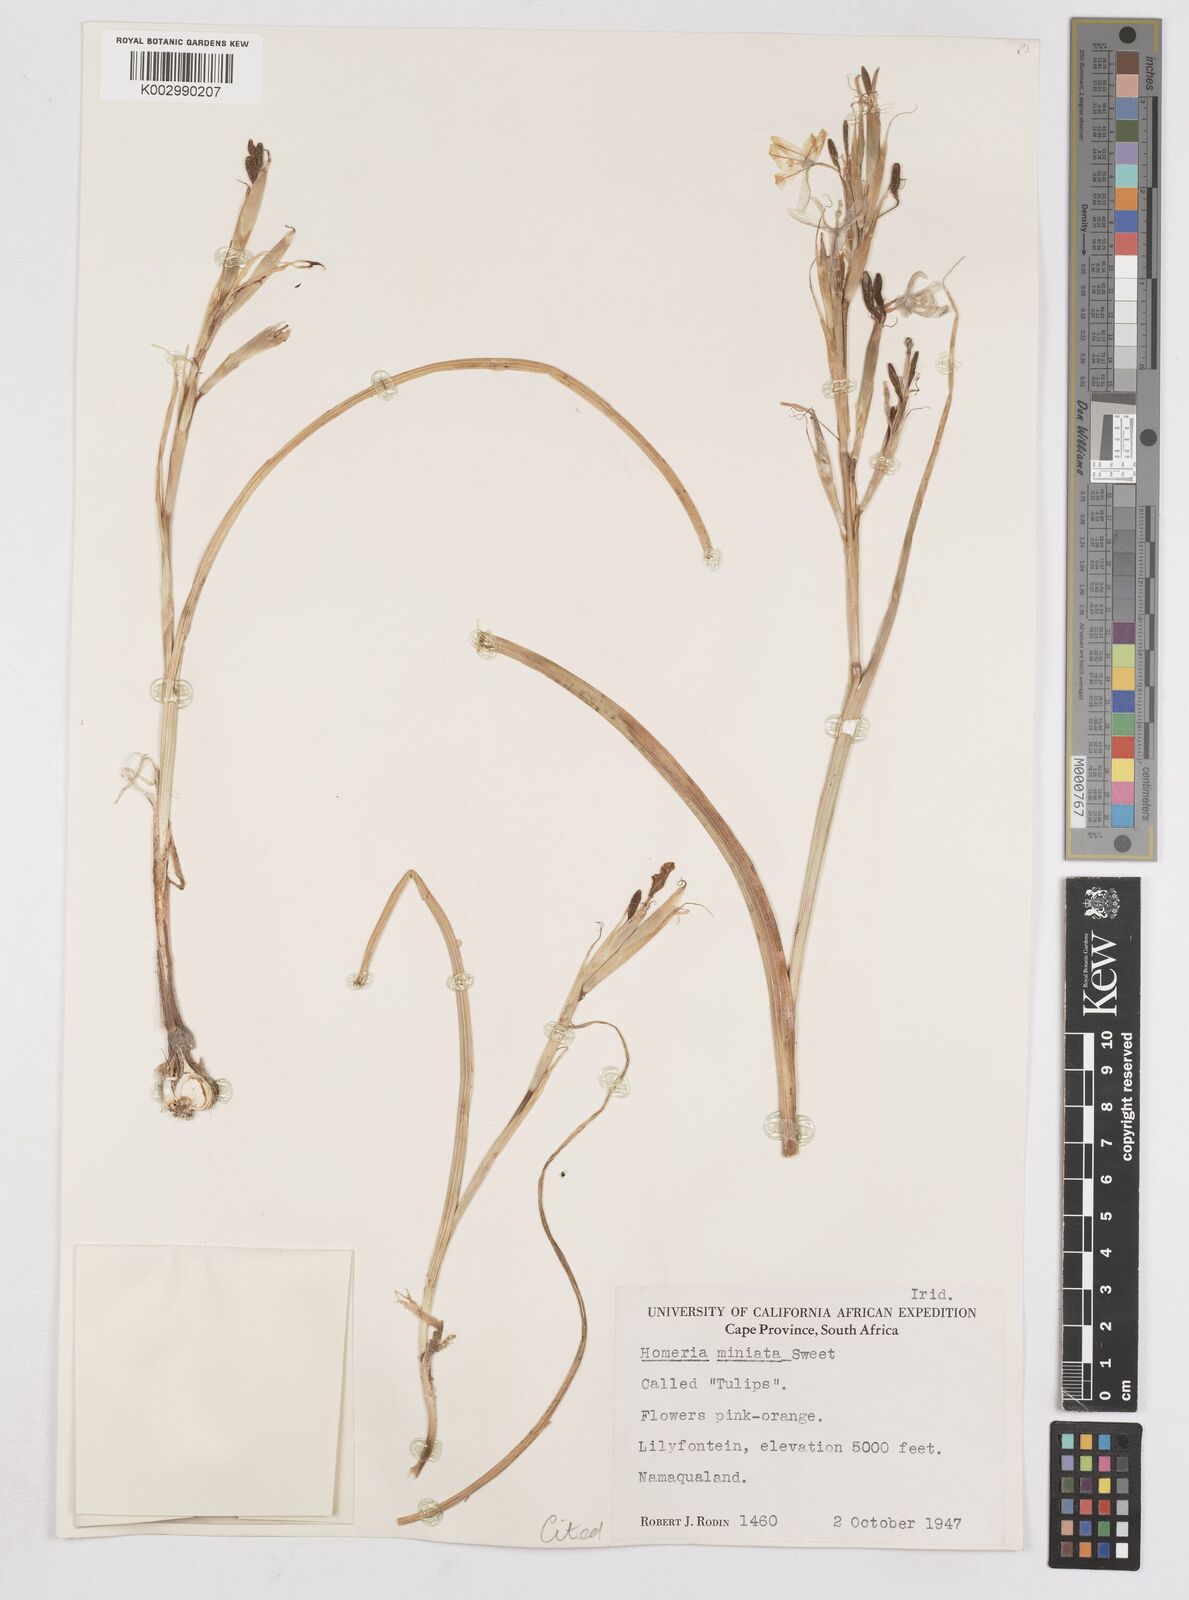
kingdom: Plantae
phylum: Tracheophyta
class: Liliopsida
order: Asparagales
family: Iridaceae
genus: Moraea
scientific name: Moraea miniata
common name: Two-leaf cape-tulip
